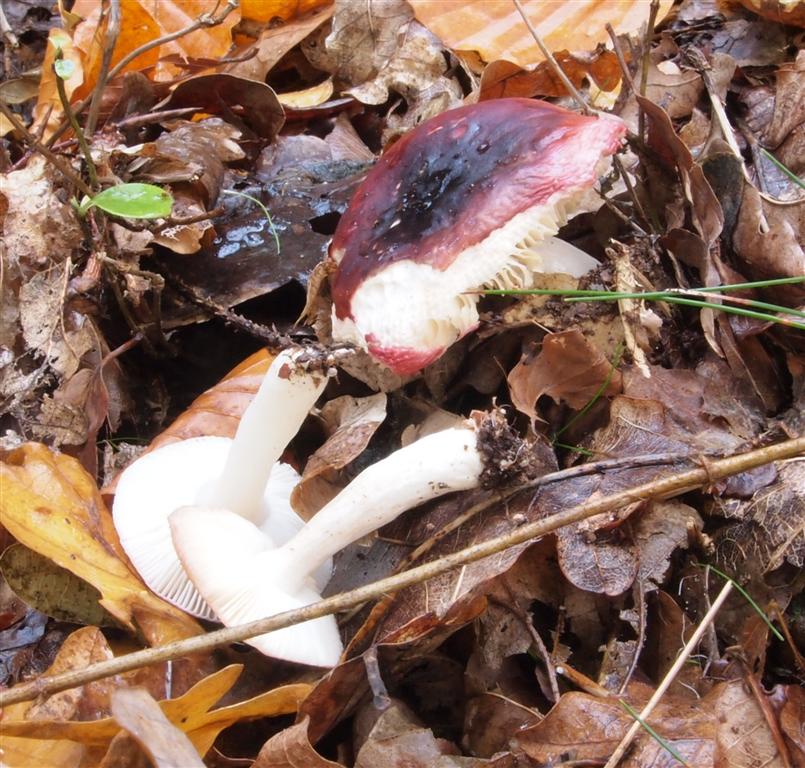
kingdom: Fungi
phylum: Basidiomycota
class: Agaricomycetes
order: Russulales
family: Russulaceae
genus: Russula
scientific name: Russula atrorubens
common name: sortrød skørhat
